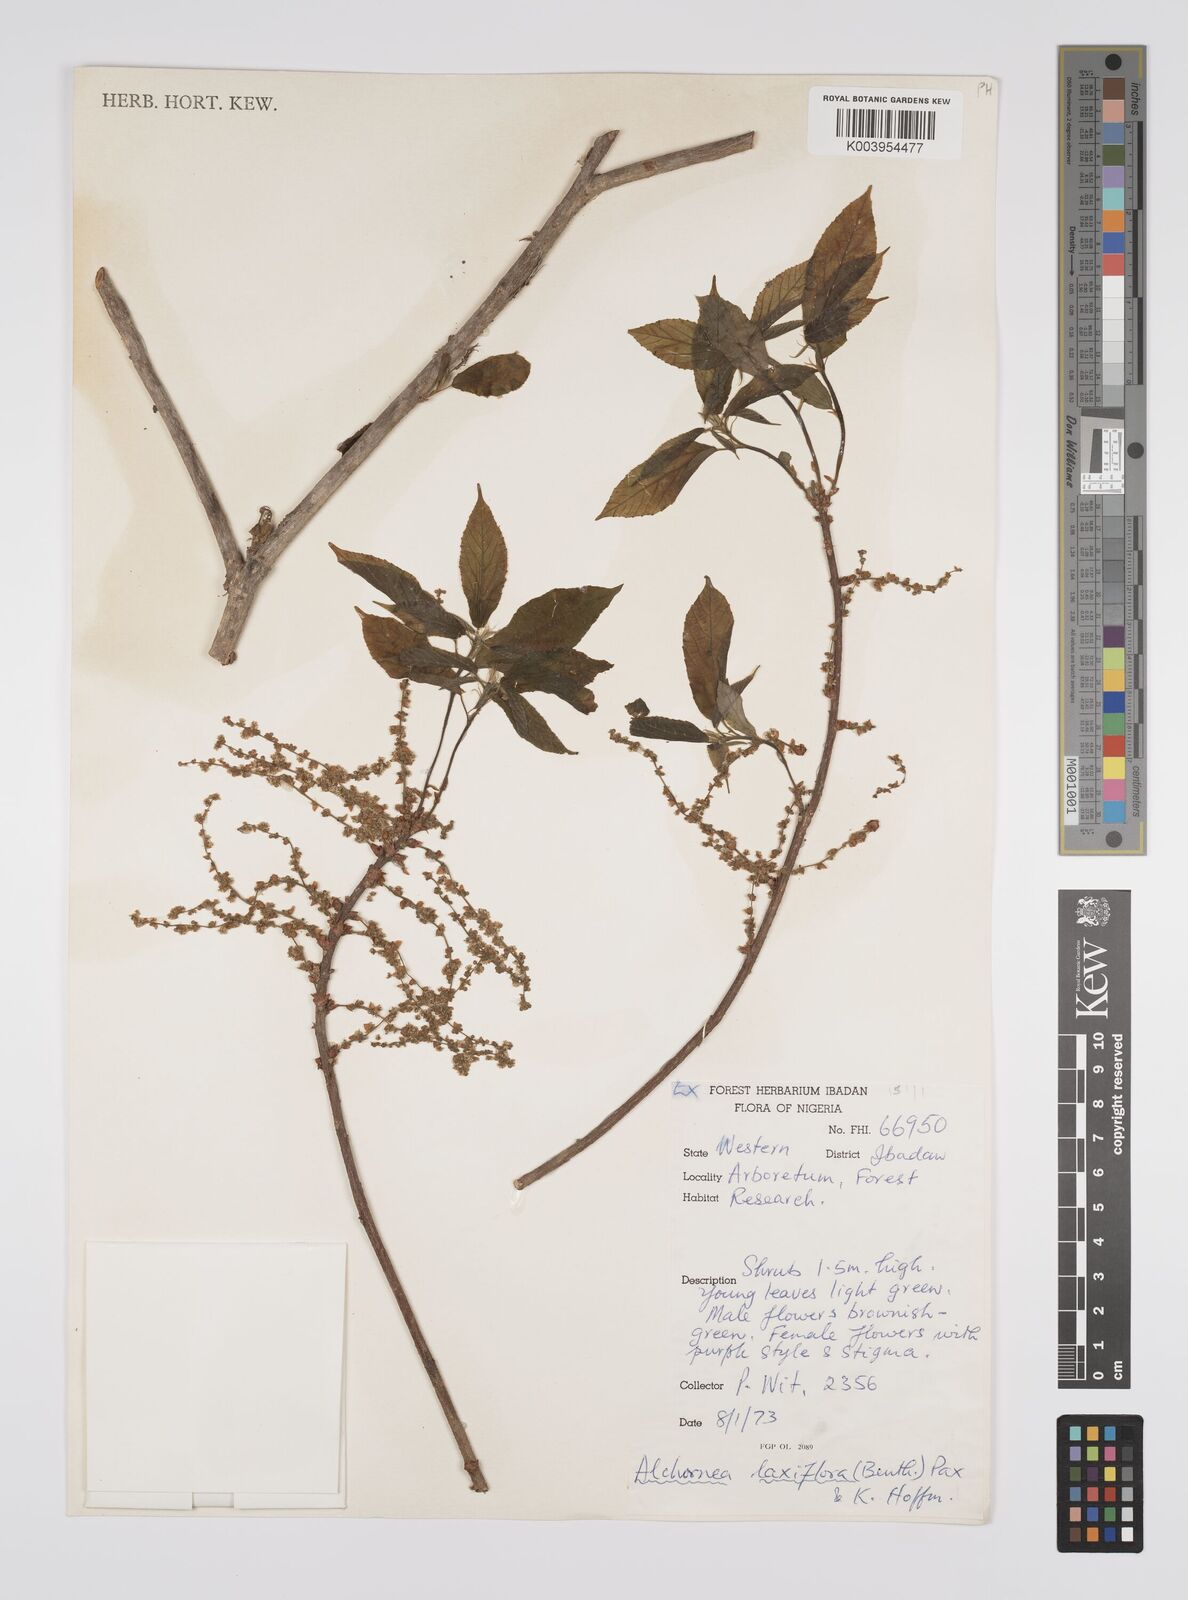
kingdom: Plantae
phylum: Tracheophyta
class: Magnoliopsida
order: Malpighiales
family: Euphorbiaceae
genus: Alchornea
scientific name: Alchornea laxiflora
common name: Lowveld bead-string
